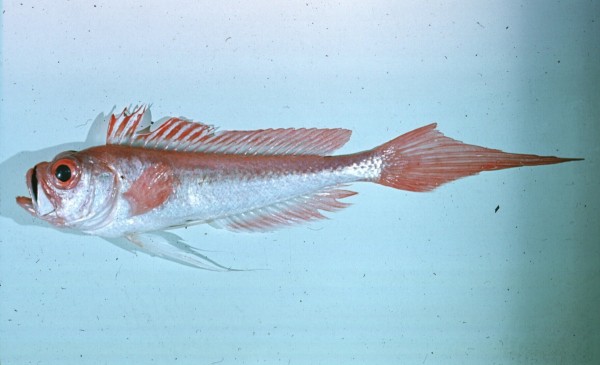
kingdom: Animalia
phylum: Chordata
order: Perciformes
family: Cepolidae
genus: Owstonia
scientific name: Owstonia weberi
